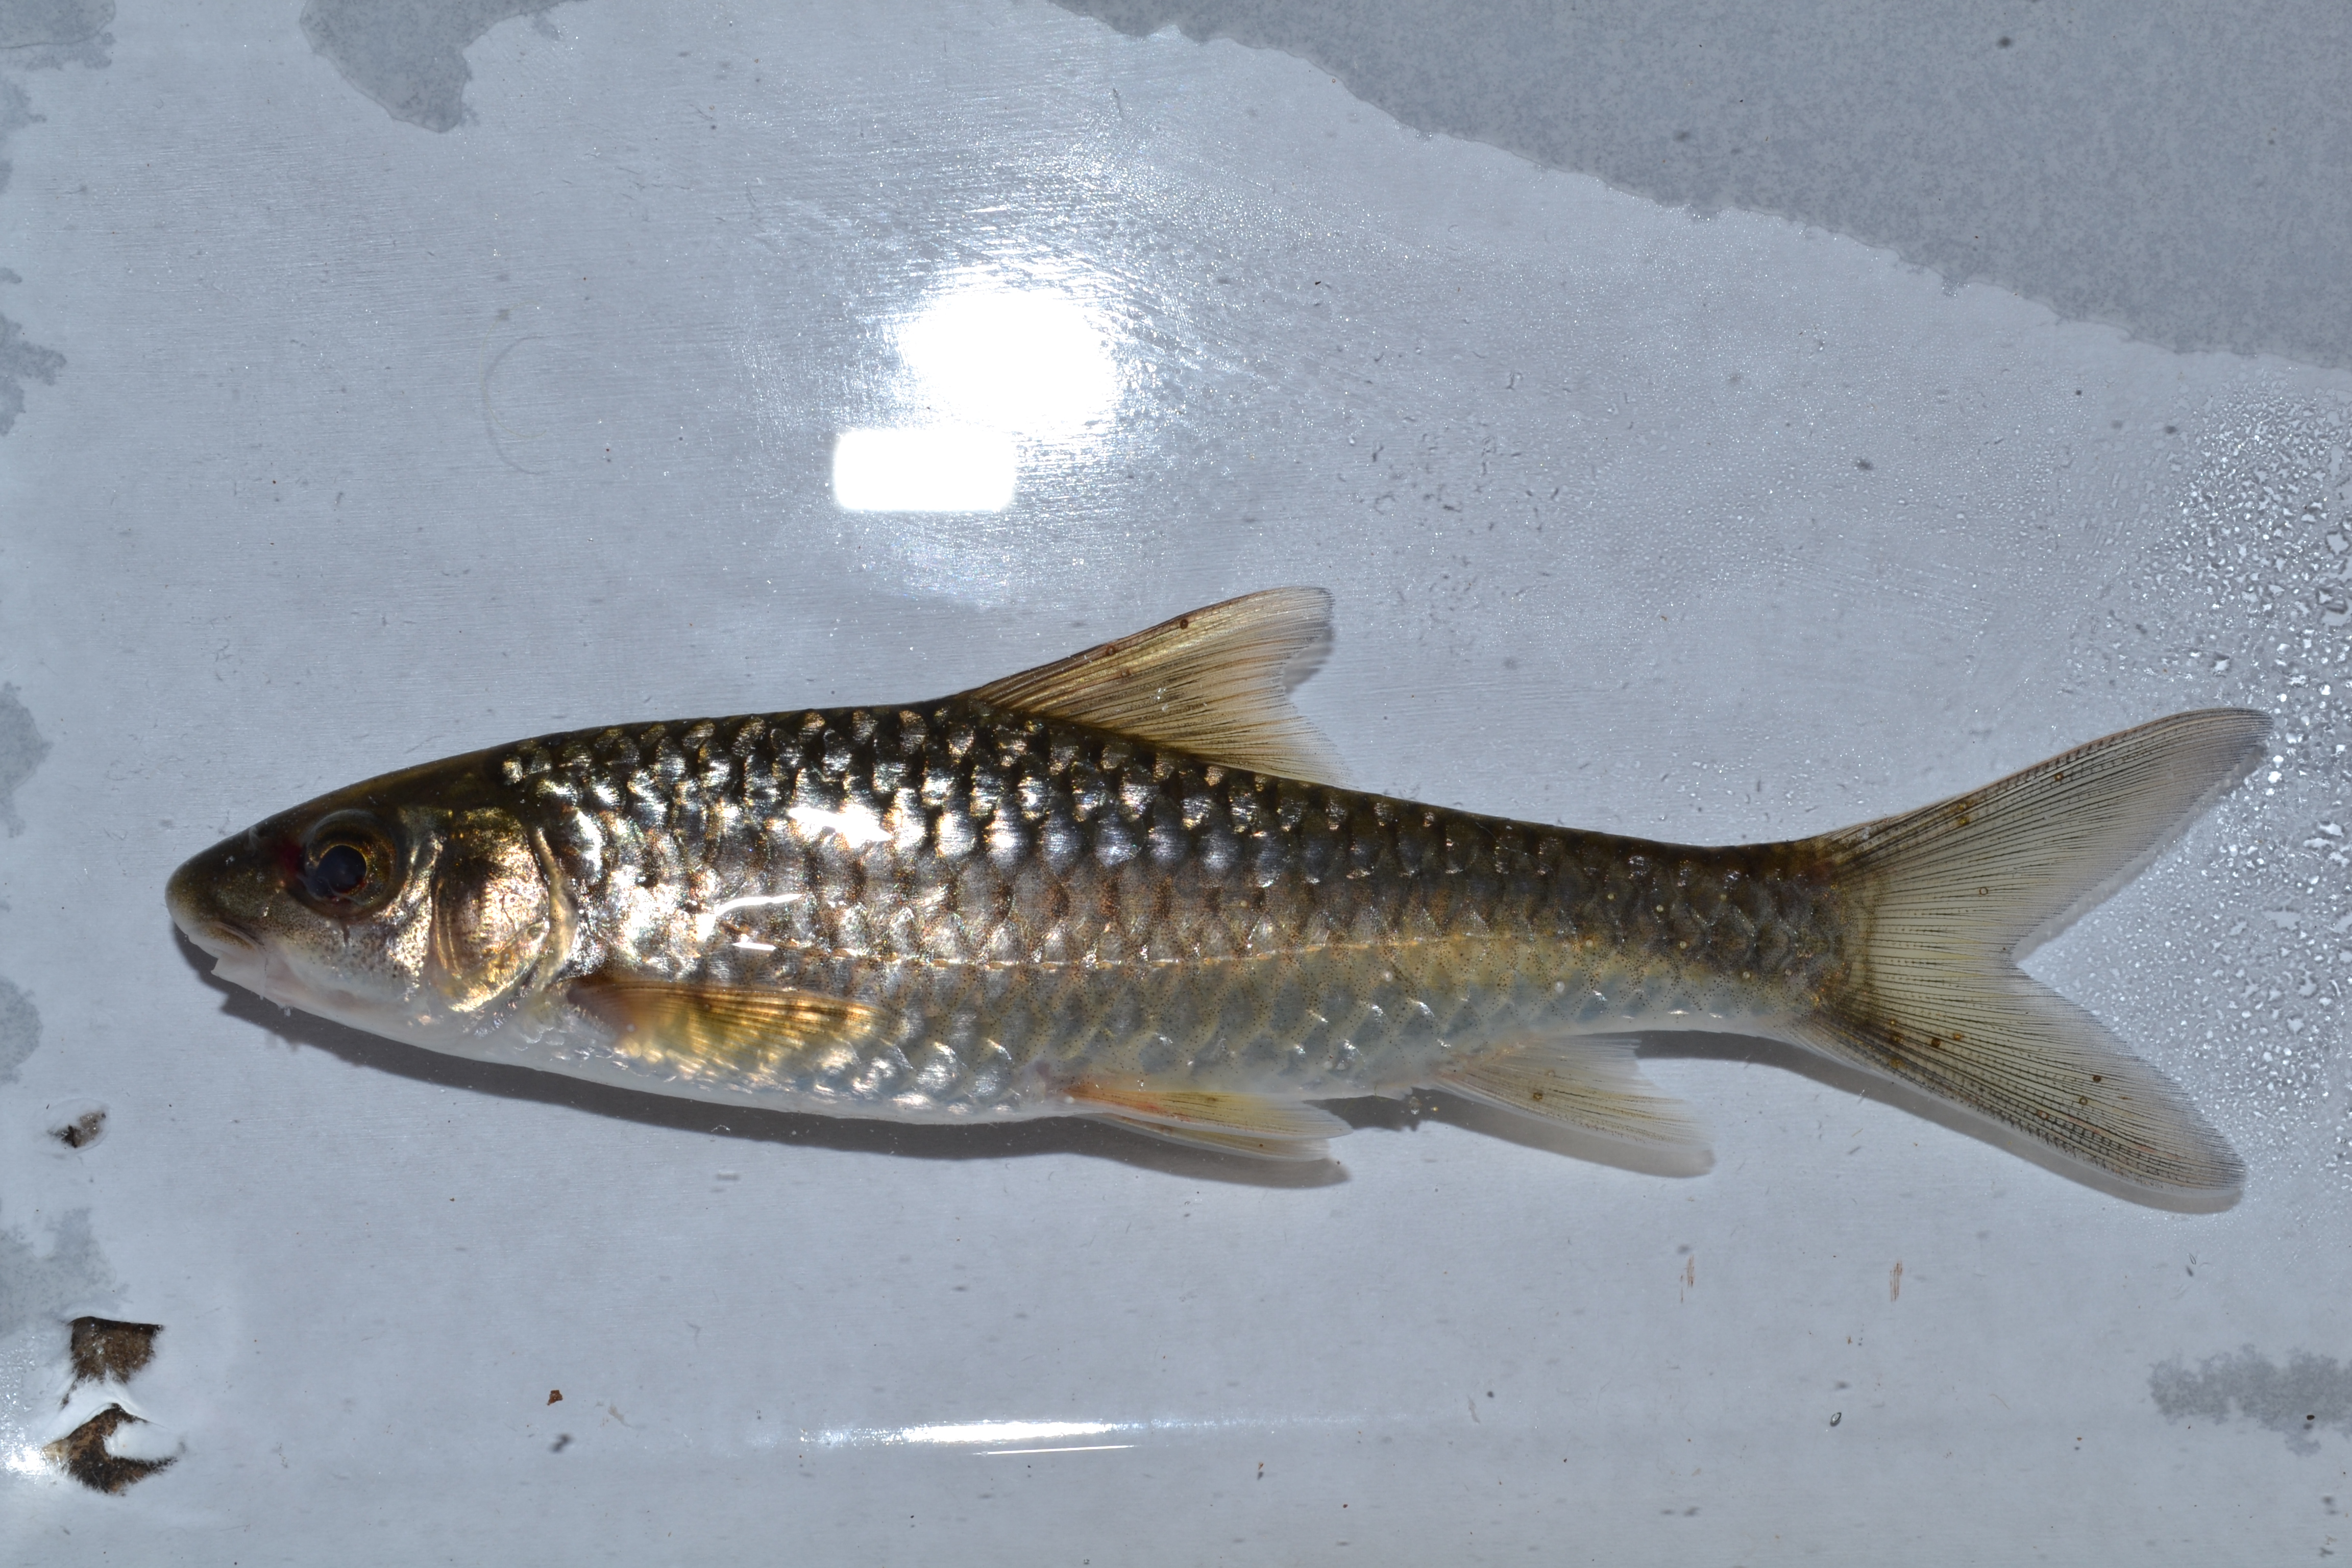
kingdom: Animalia
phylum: Chordata
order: Cypriniformes
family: Cyprinidae
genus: Labeobarbus
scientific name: Labeobarbus pungweensis
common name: Pungwe chiselmouth
